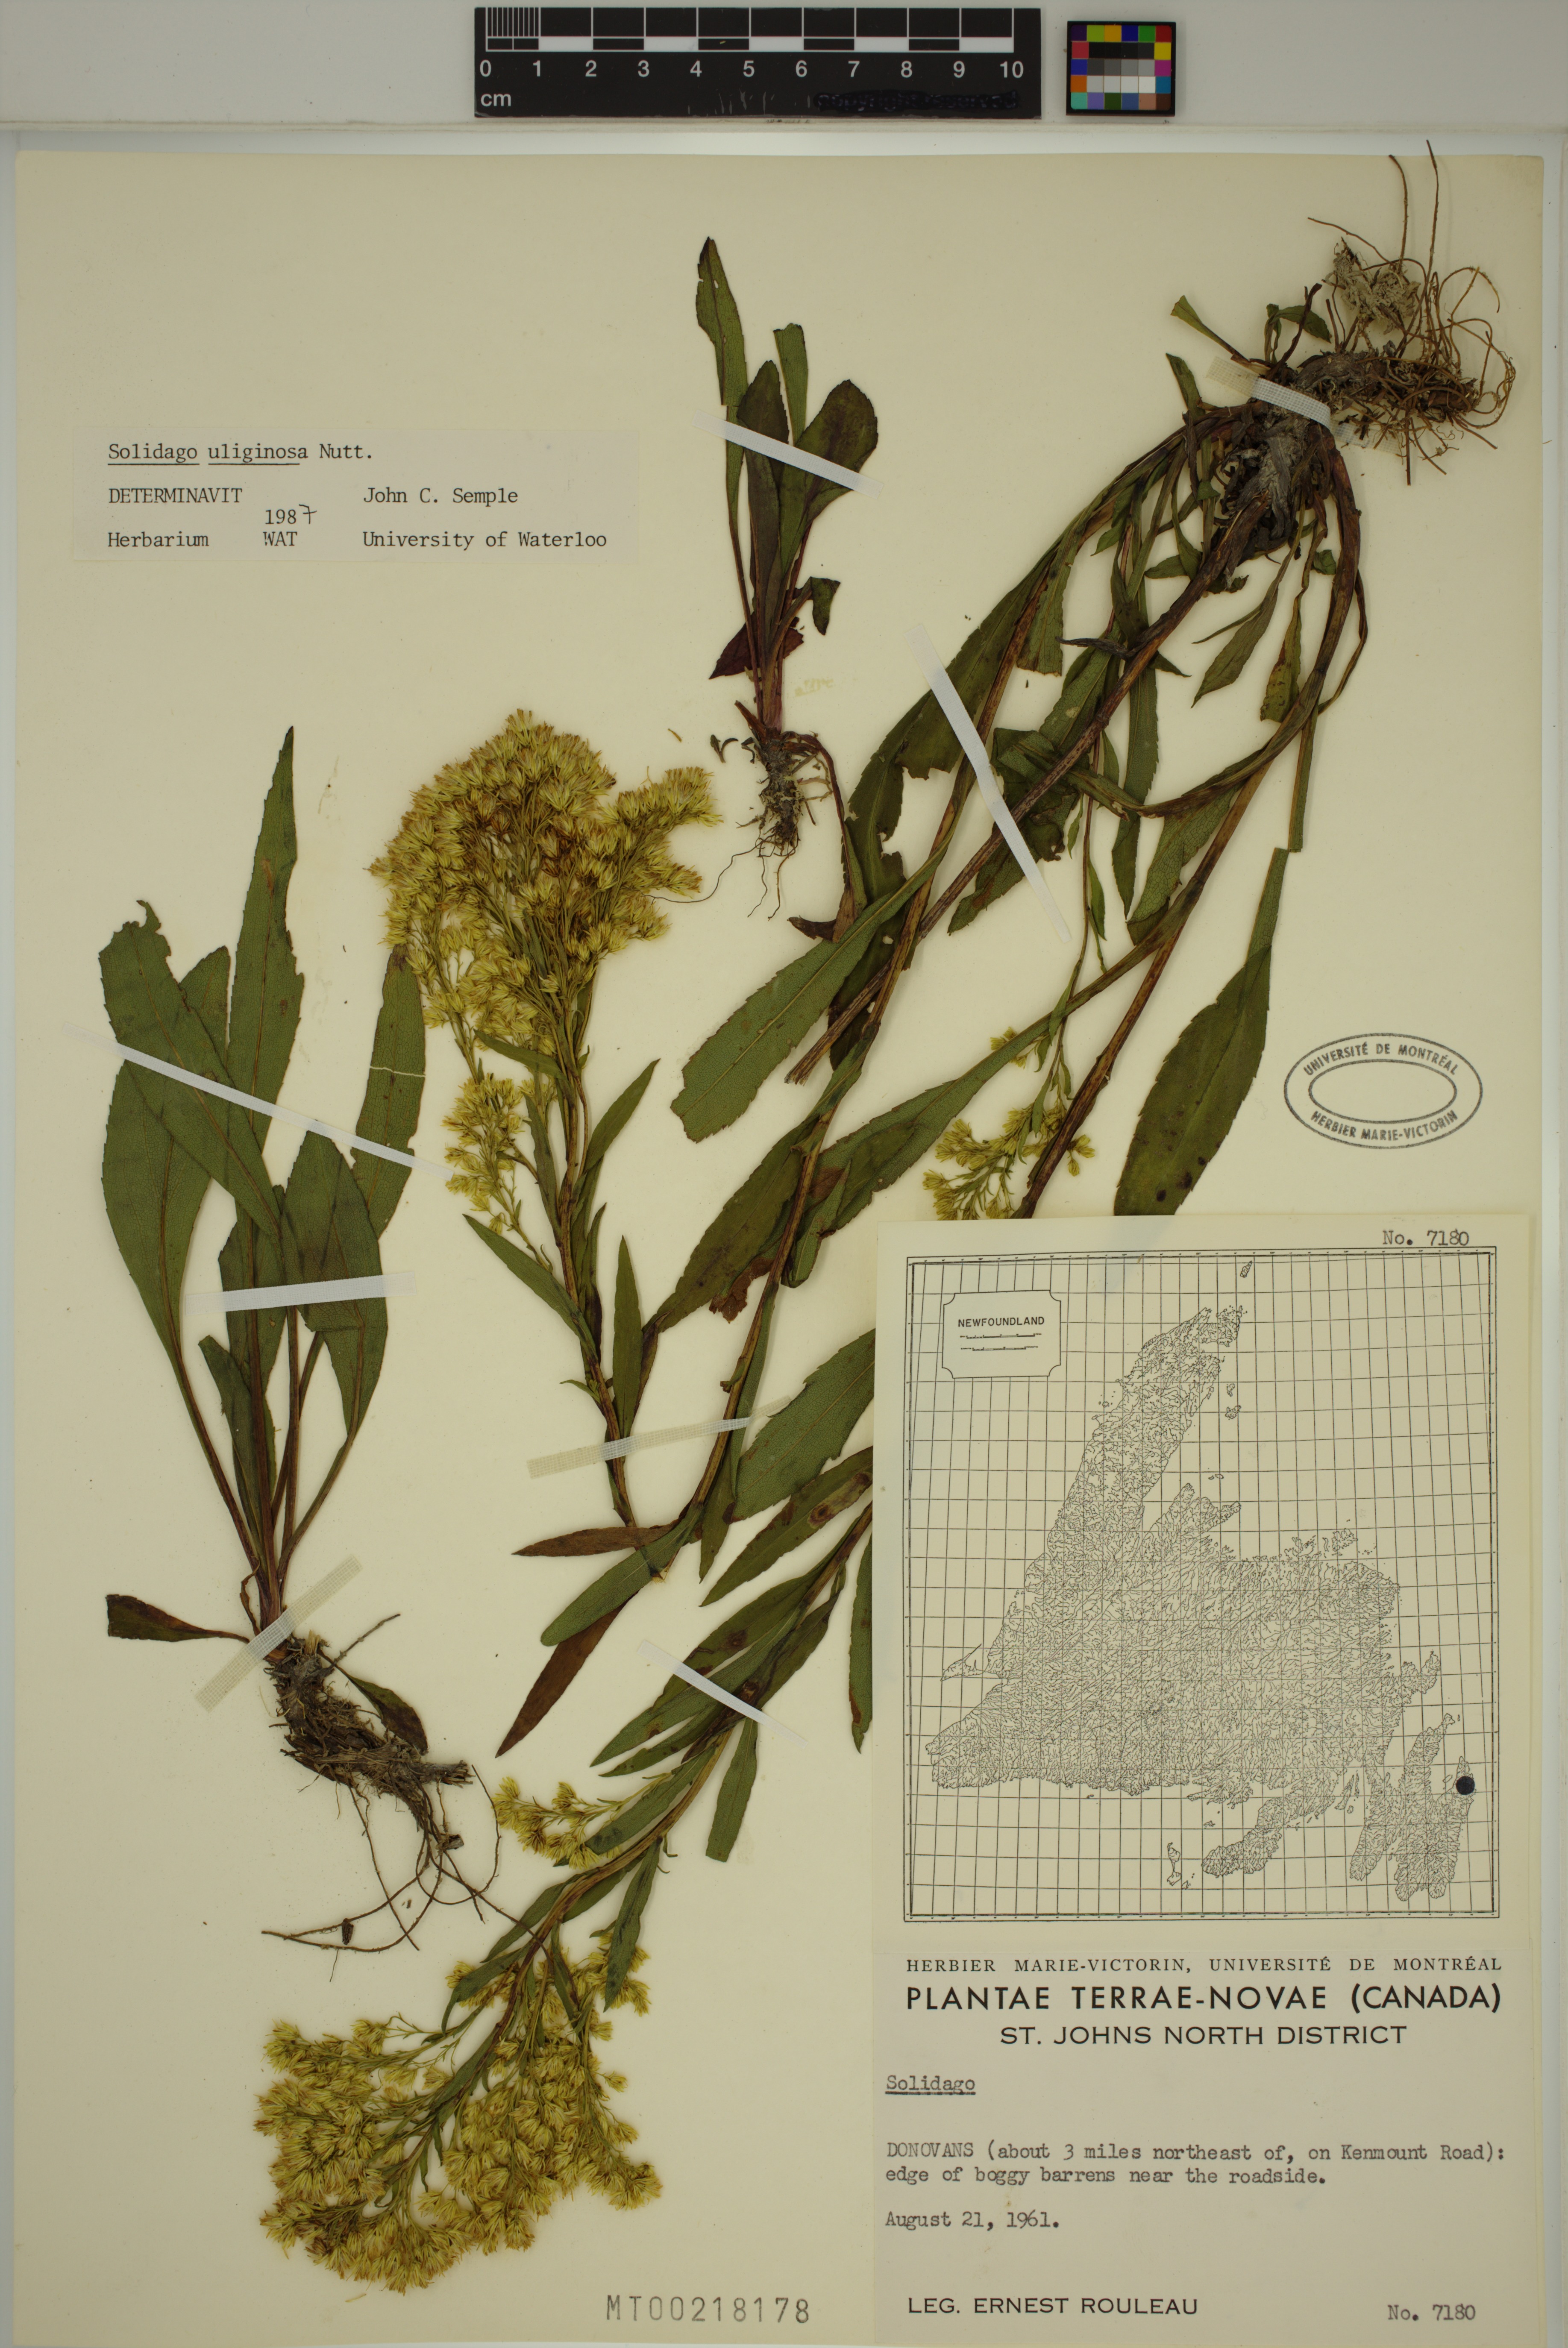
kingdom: Plantae
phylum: Tracheophyta
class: Magnoliopsida
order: Asterales
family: Asteraceae
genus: Solidago
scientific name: Solidago uliginosa
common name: Bog goldenrod
